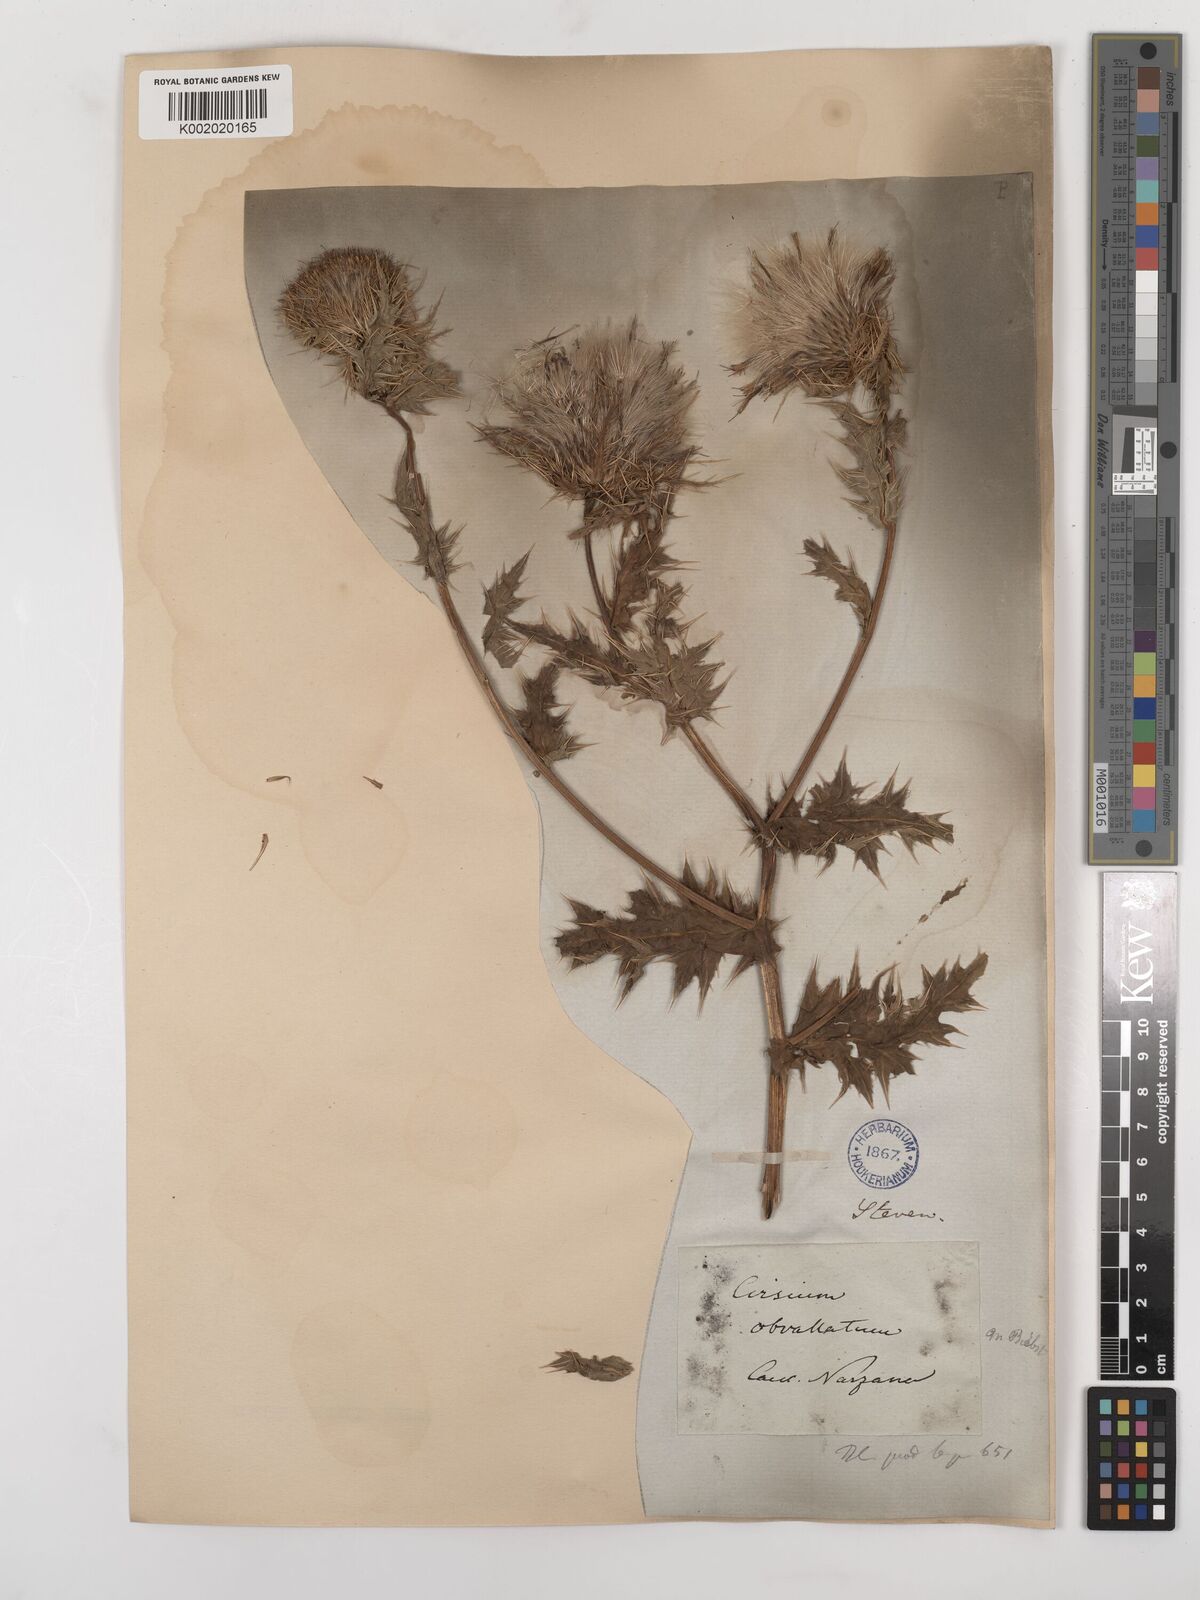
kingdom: Plantae
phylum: Tracheophyta
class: Magnoliopsida
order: Asterales
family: Asteraceae
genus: Cirsium
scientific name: Cirsium obvallatum
